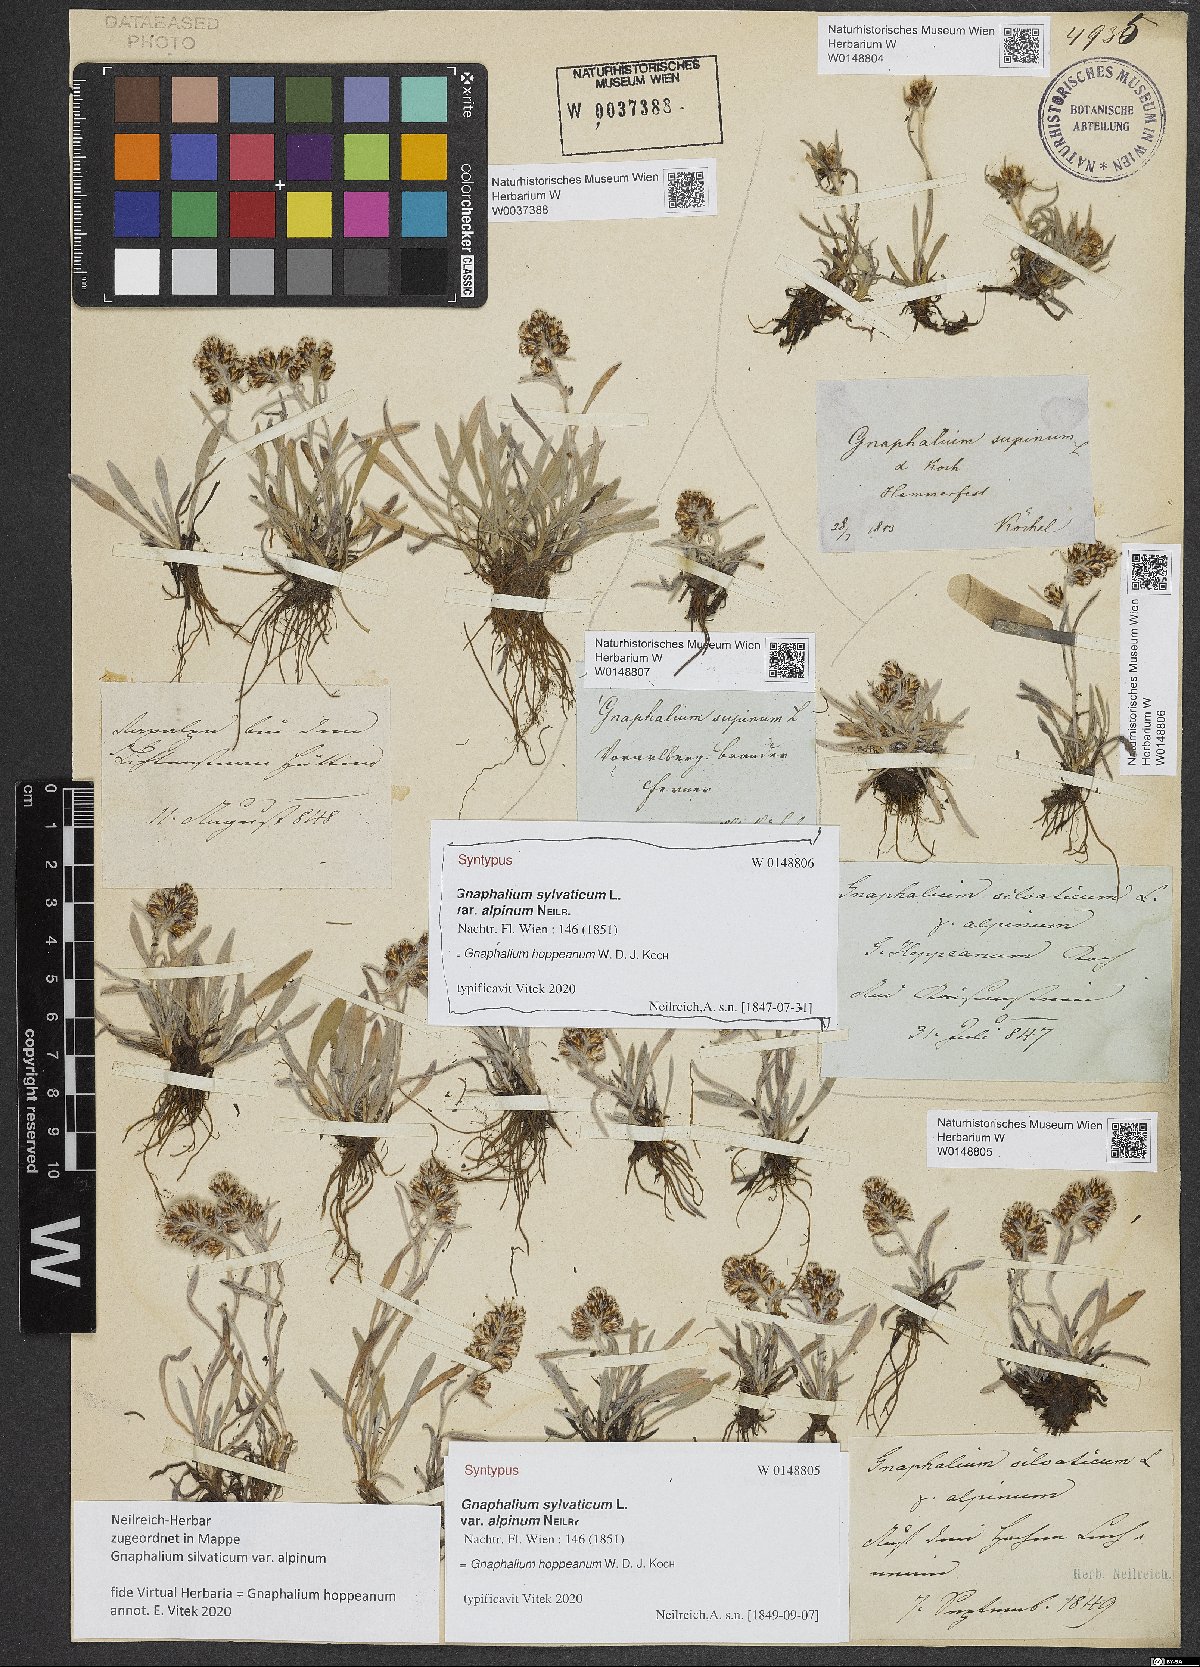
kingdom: Plantae
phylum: Tracheophyta
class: Magnoliopsida
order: Asterales
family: Asteraceae
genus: Omalotheca
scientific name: Omalotheca hoppeana
